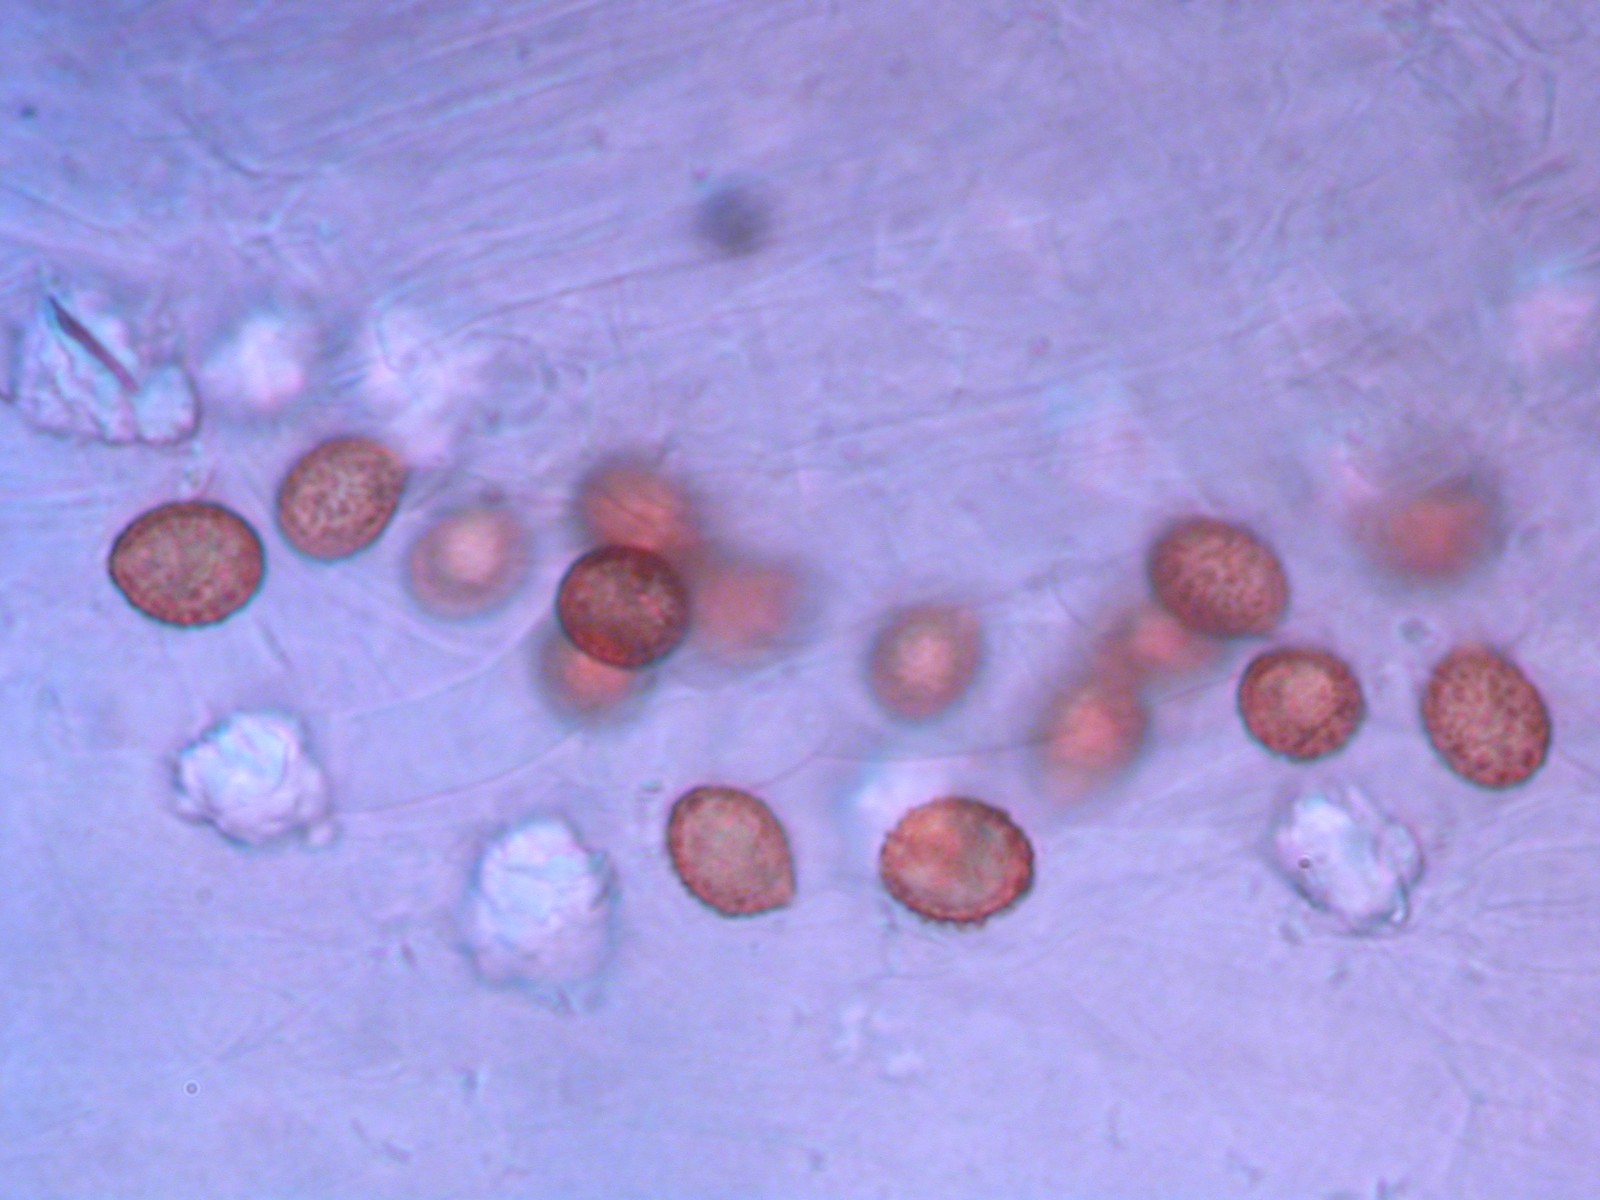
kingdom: Fungi
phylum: Basidiomycota
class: Agaricomycetes
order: Agaricales
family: Cortinariaceae
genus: Cortinarius
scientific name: Cortinarius anomalus
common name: Variable webcap
